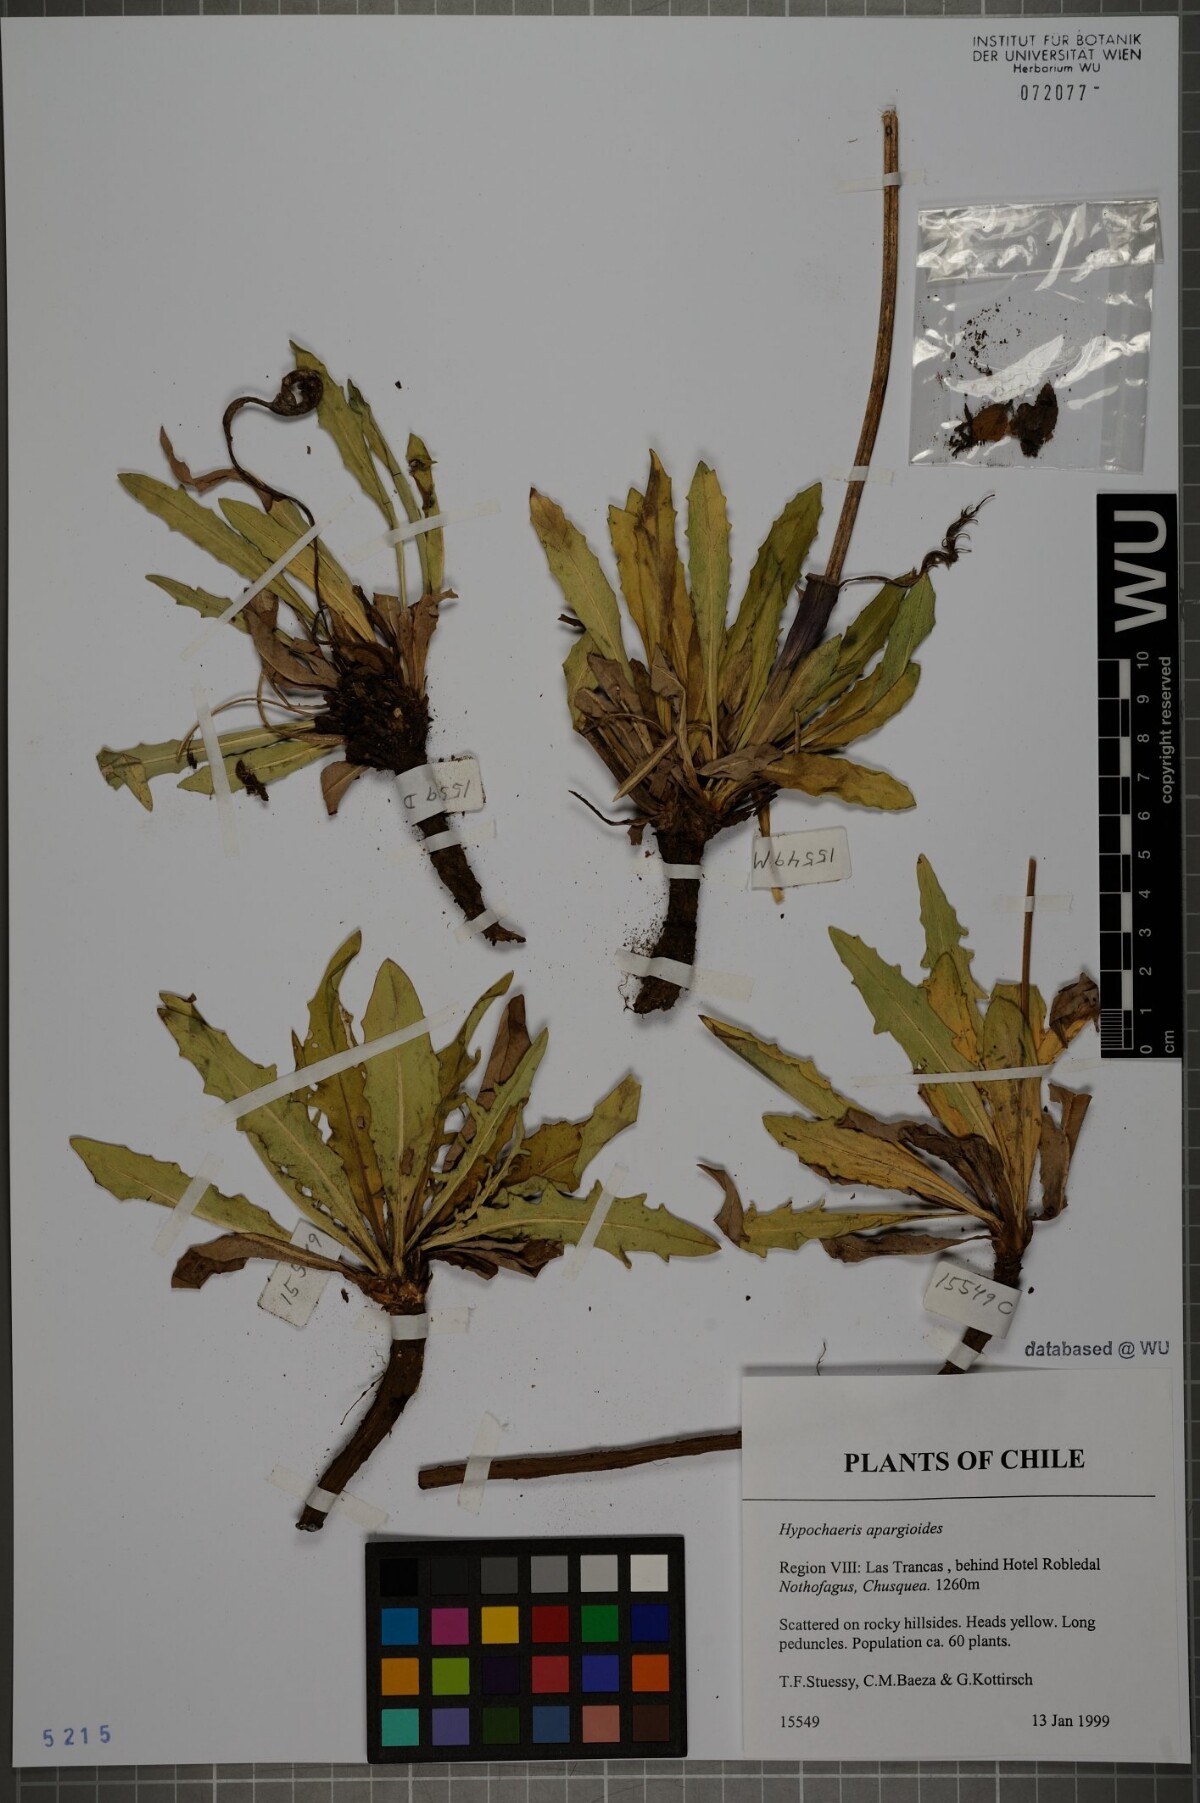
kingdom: Plantae
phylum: Tracheophyta
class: Magnoliopsida
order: Asterales
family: Asteraceae
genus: Hypochaeris
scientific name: Hypochaeris apargioides
